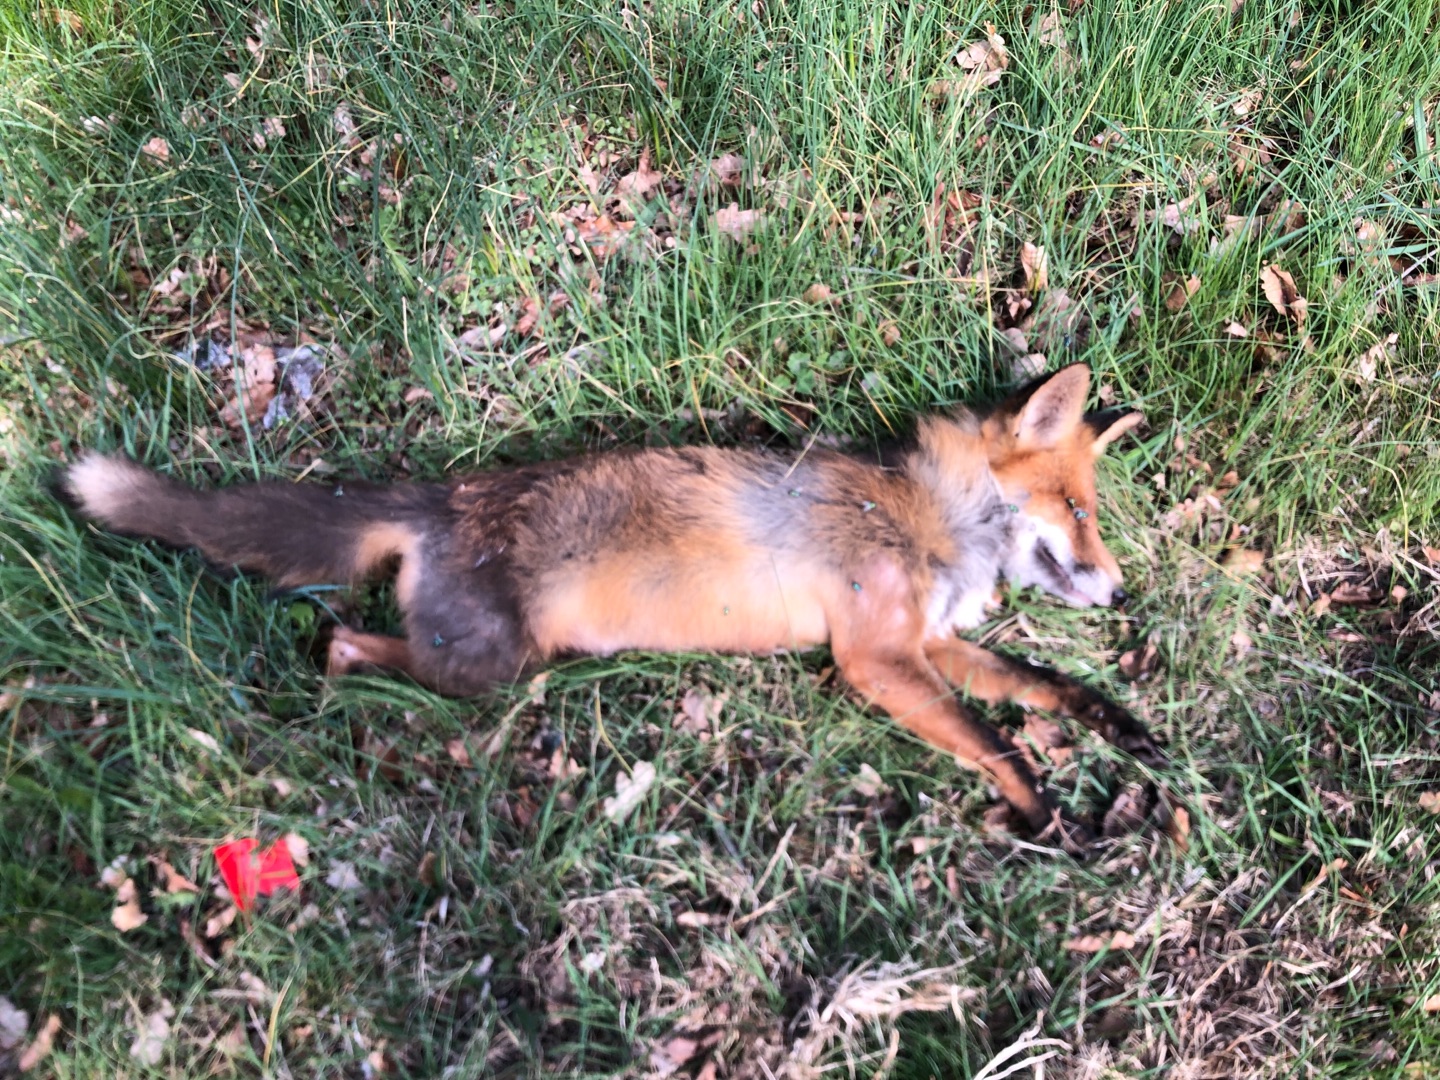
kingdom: Animalia
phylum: Chordata
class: Mammalia
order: Carnivora
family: Canidae
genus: Vulpes
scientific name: Vulpes vulpes
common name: Ræv
